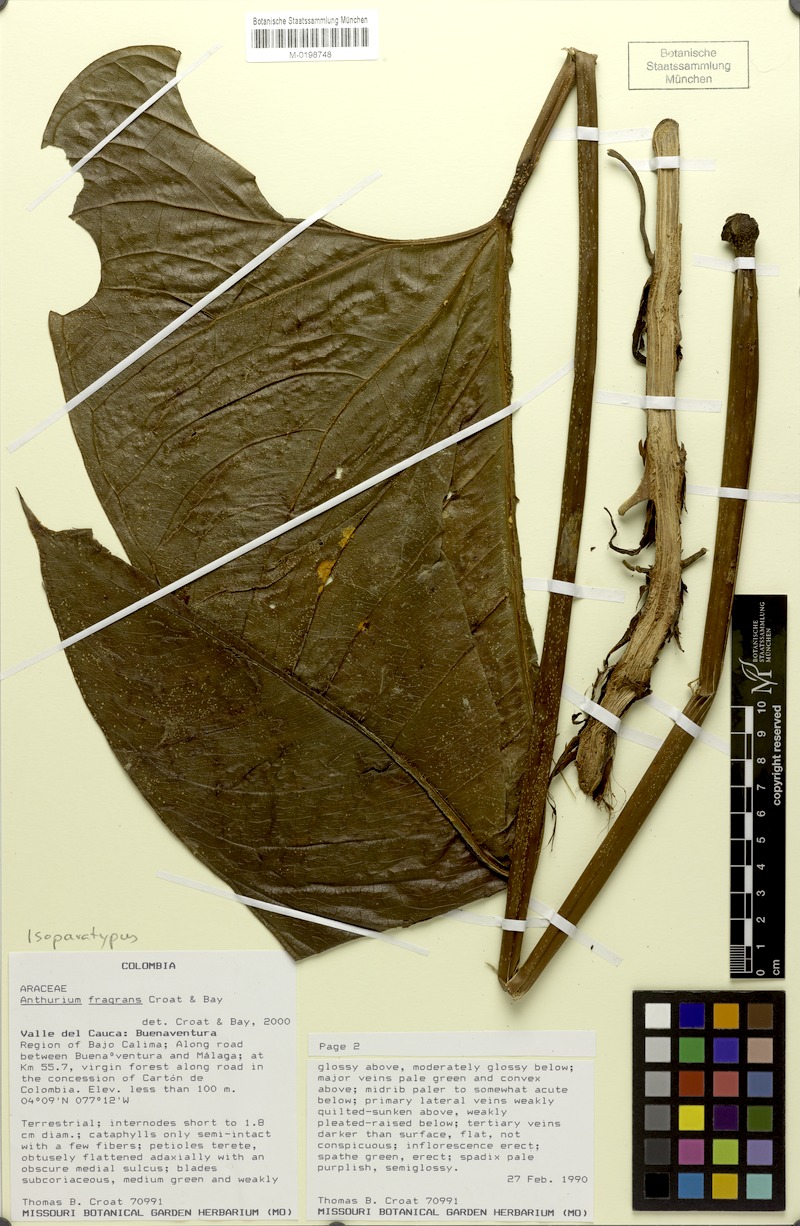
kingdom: Plantae
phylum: Tracheophyta
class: Liliopsida
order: Alismatales
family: Araceae
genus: Anthurium
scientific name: Anthurium fragrans
